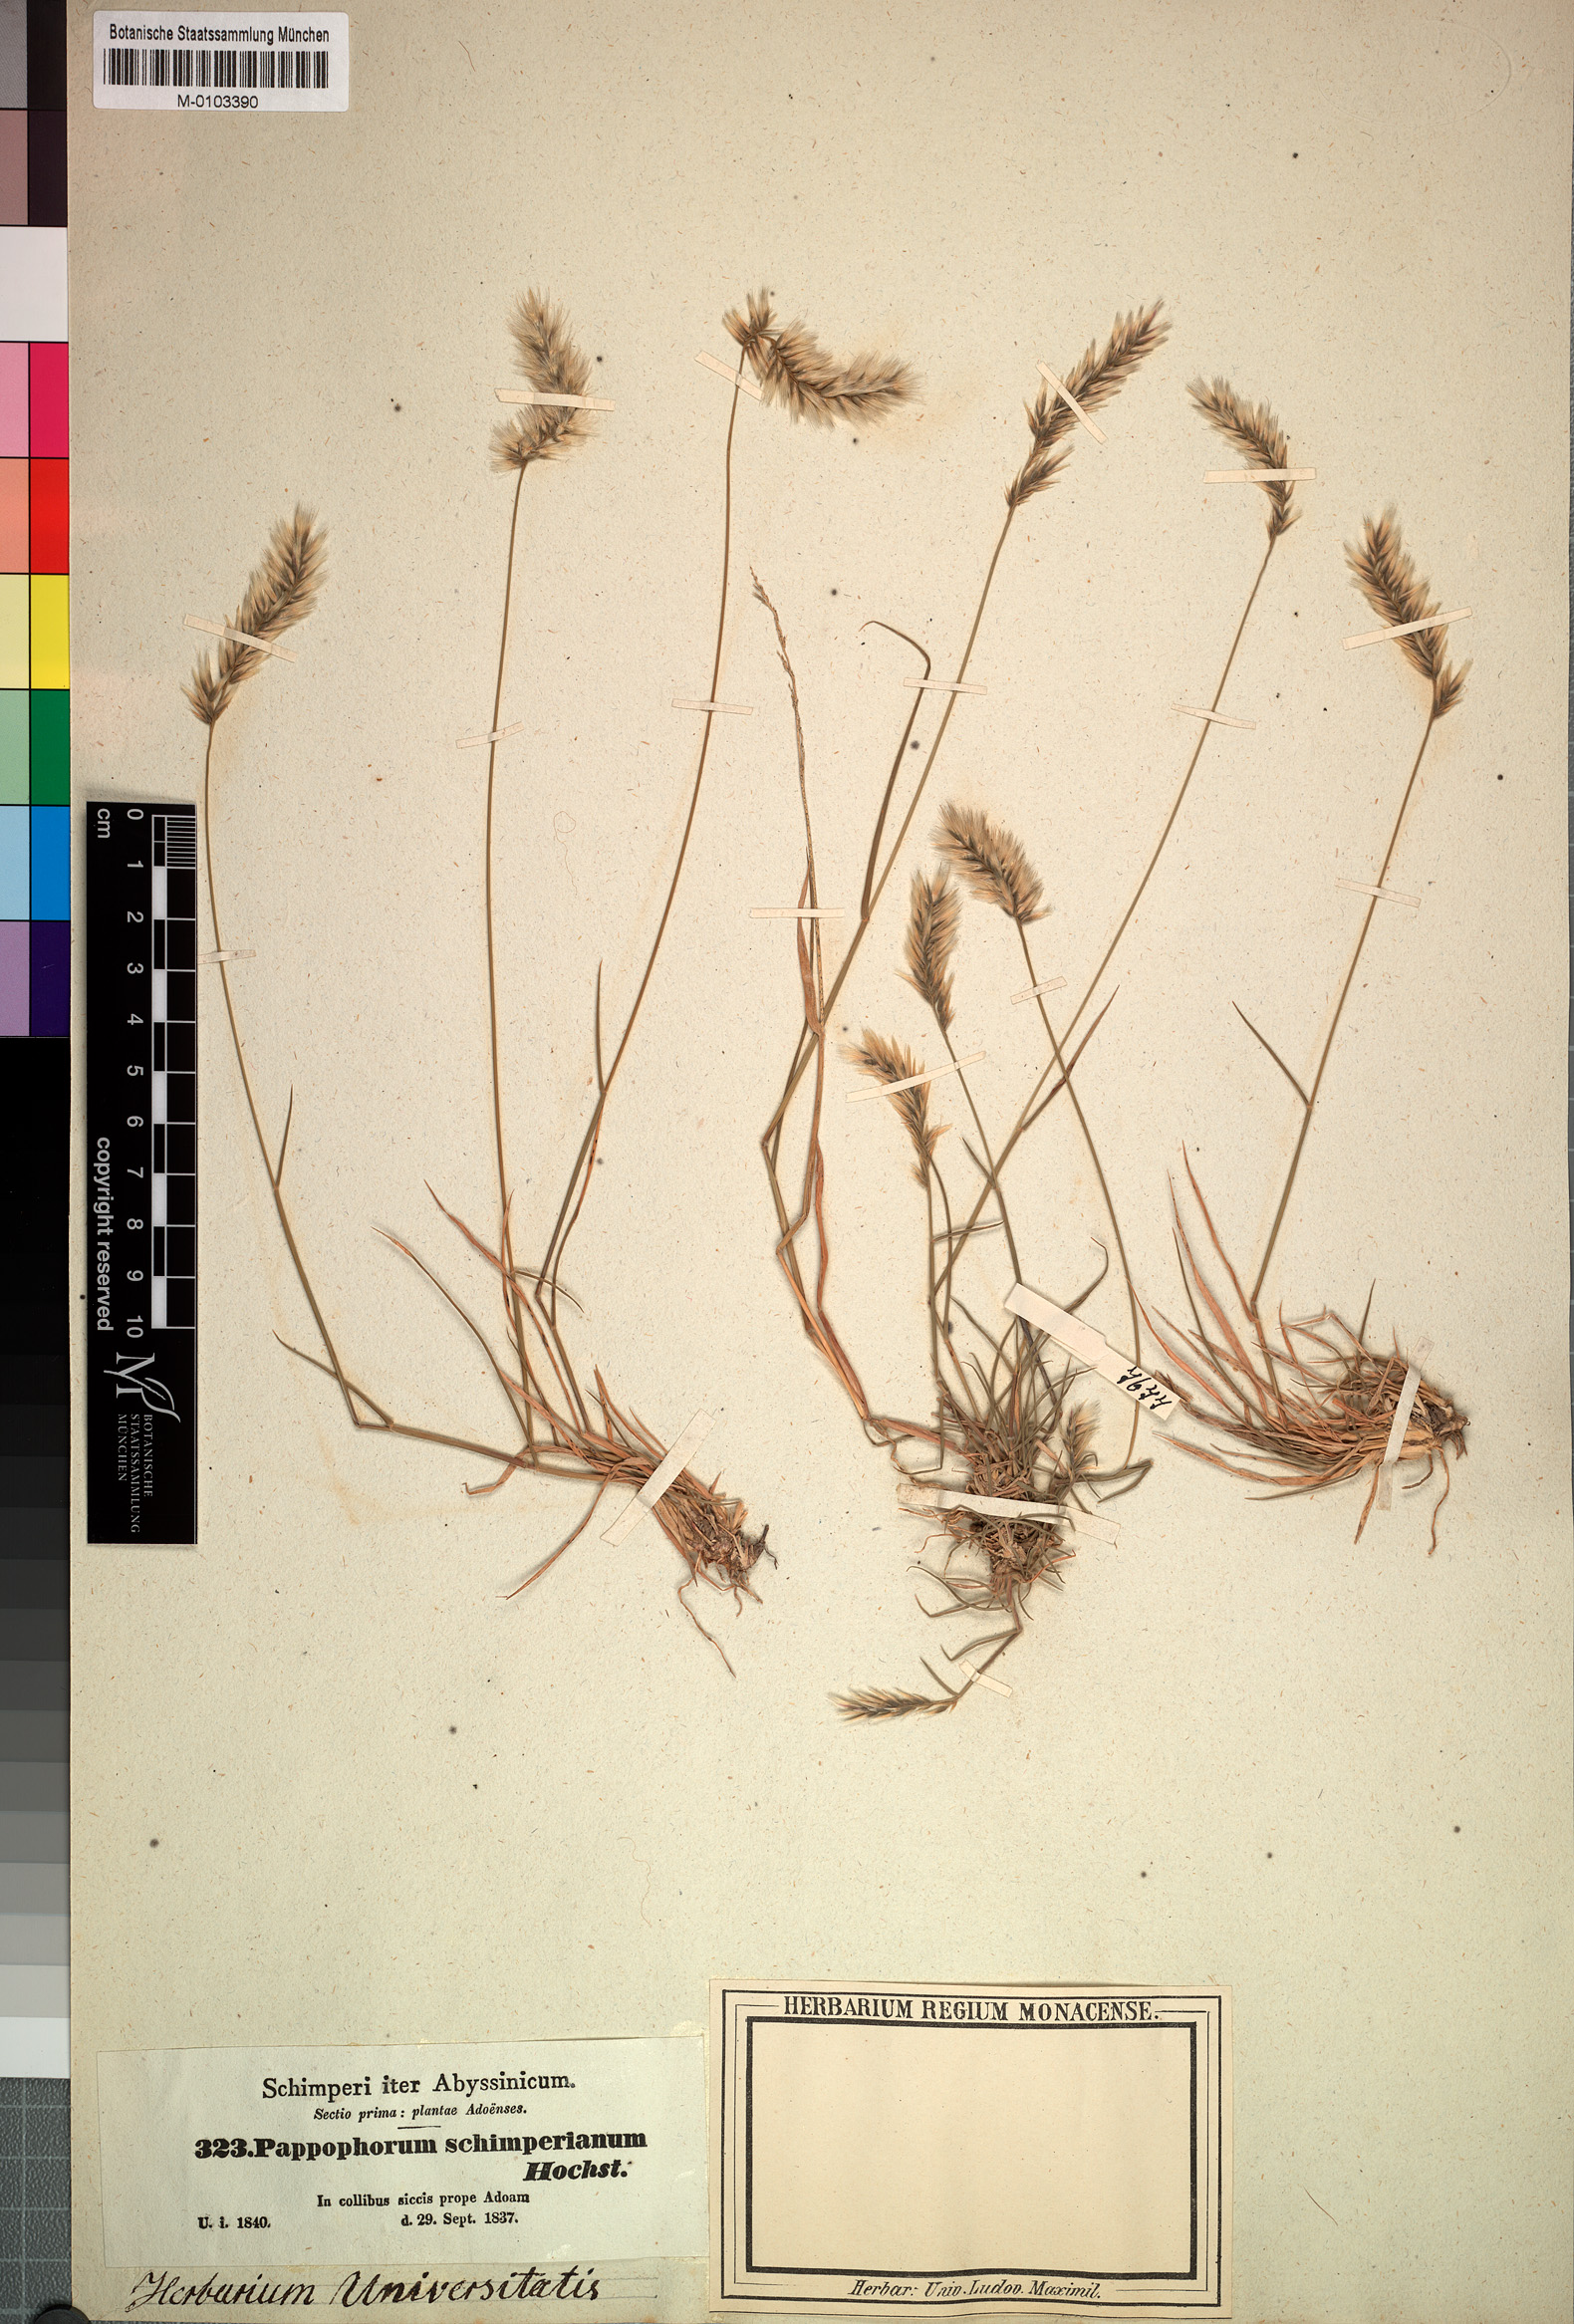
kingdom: Plantae
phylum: Tracheophyta
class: Liliopsida
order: Poales
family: Poaceae
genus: Enneapogon
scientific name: Enneapogon persicus
